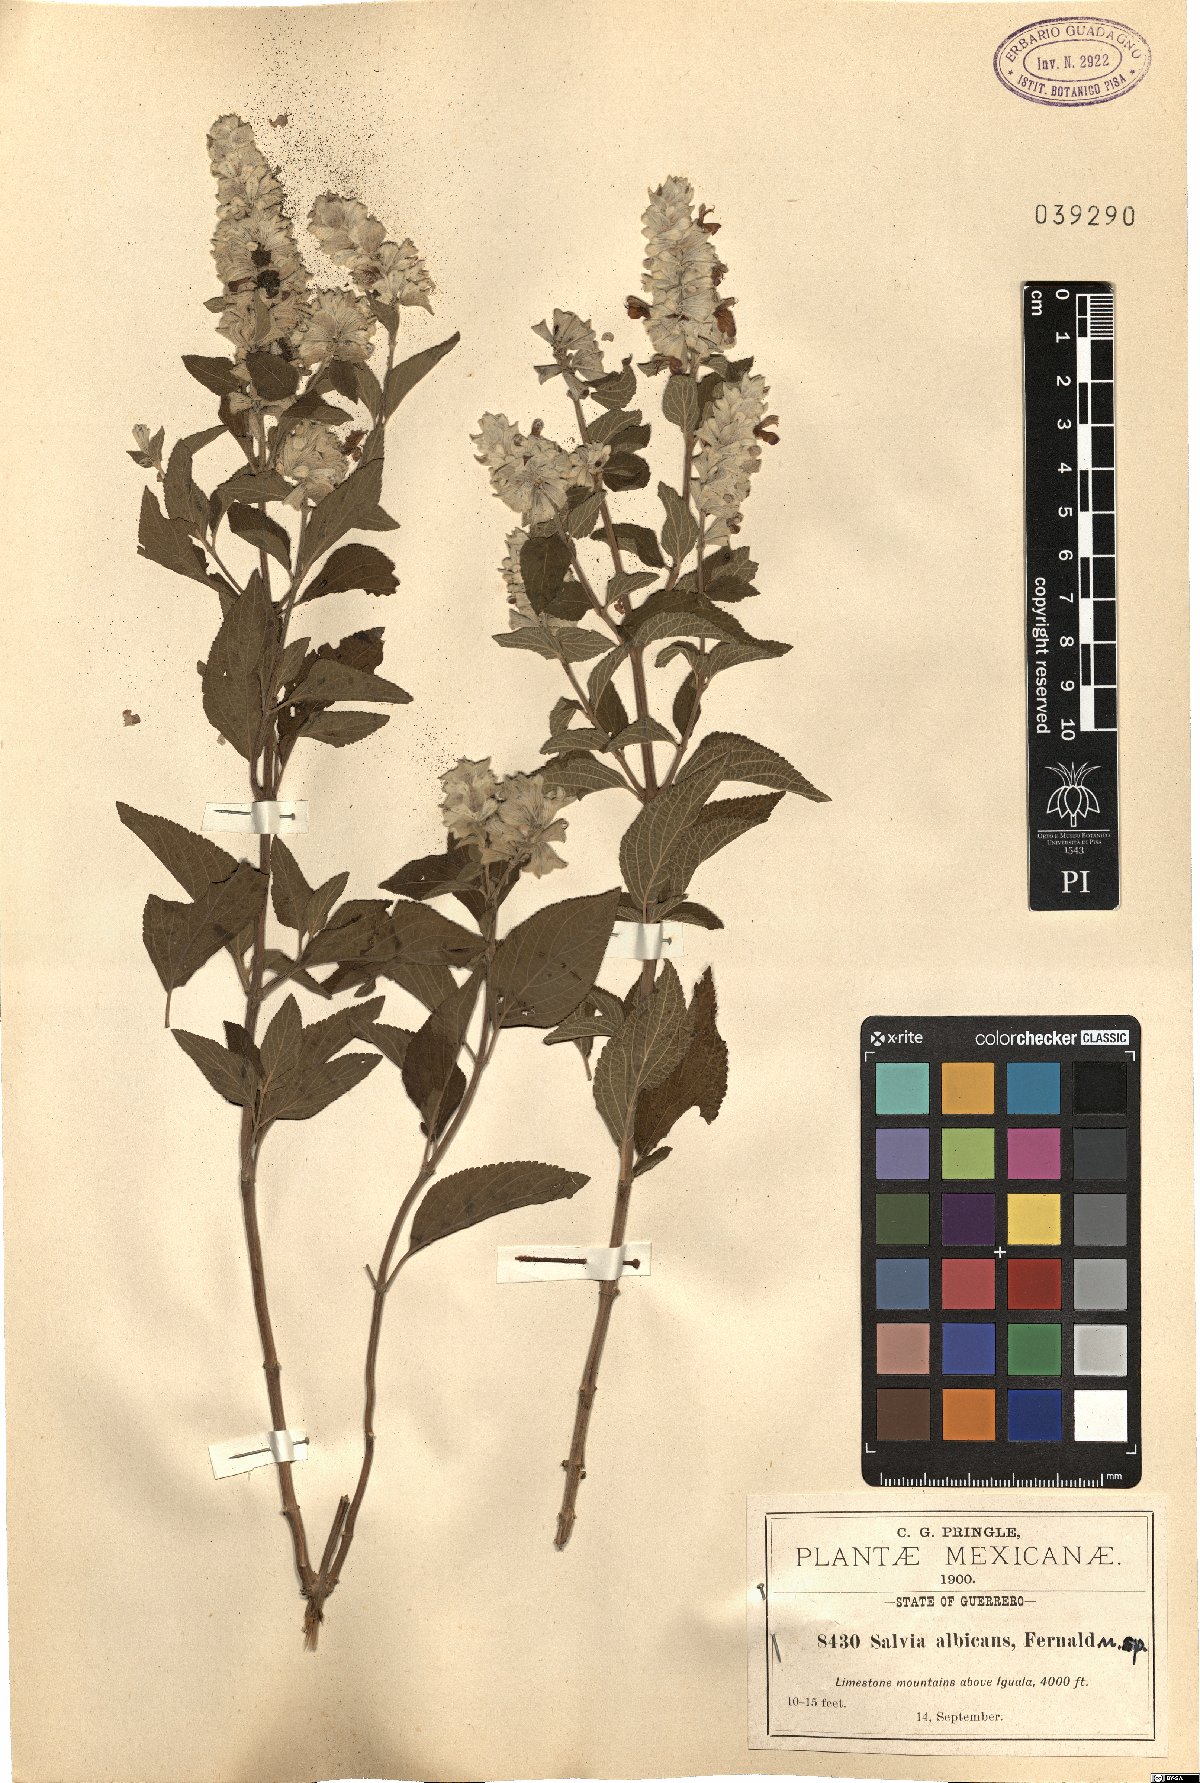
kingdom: Plantae
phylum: Tracheophyta
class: Magnoliopsida
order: Lamiales
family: Lamiaceae
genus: Salvia
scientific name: Salvia breviflora
